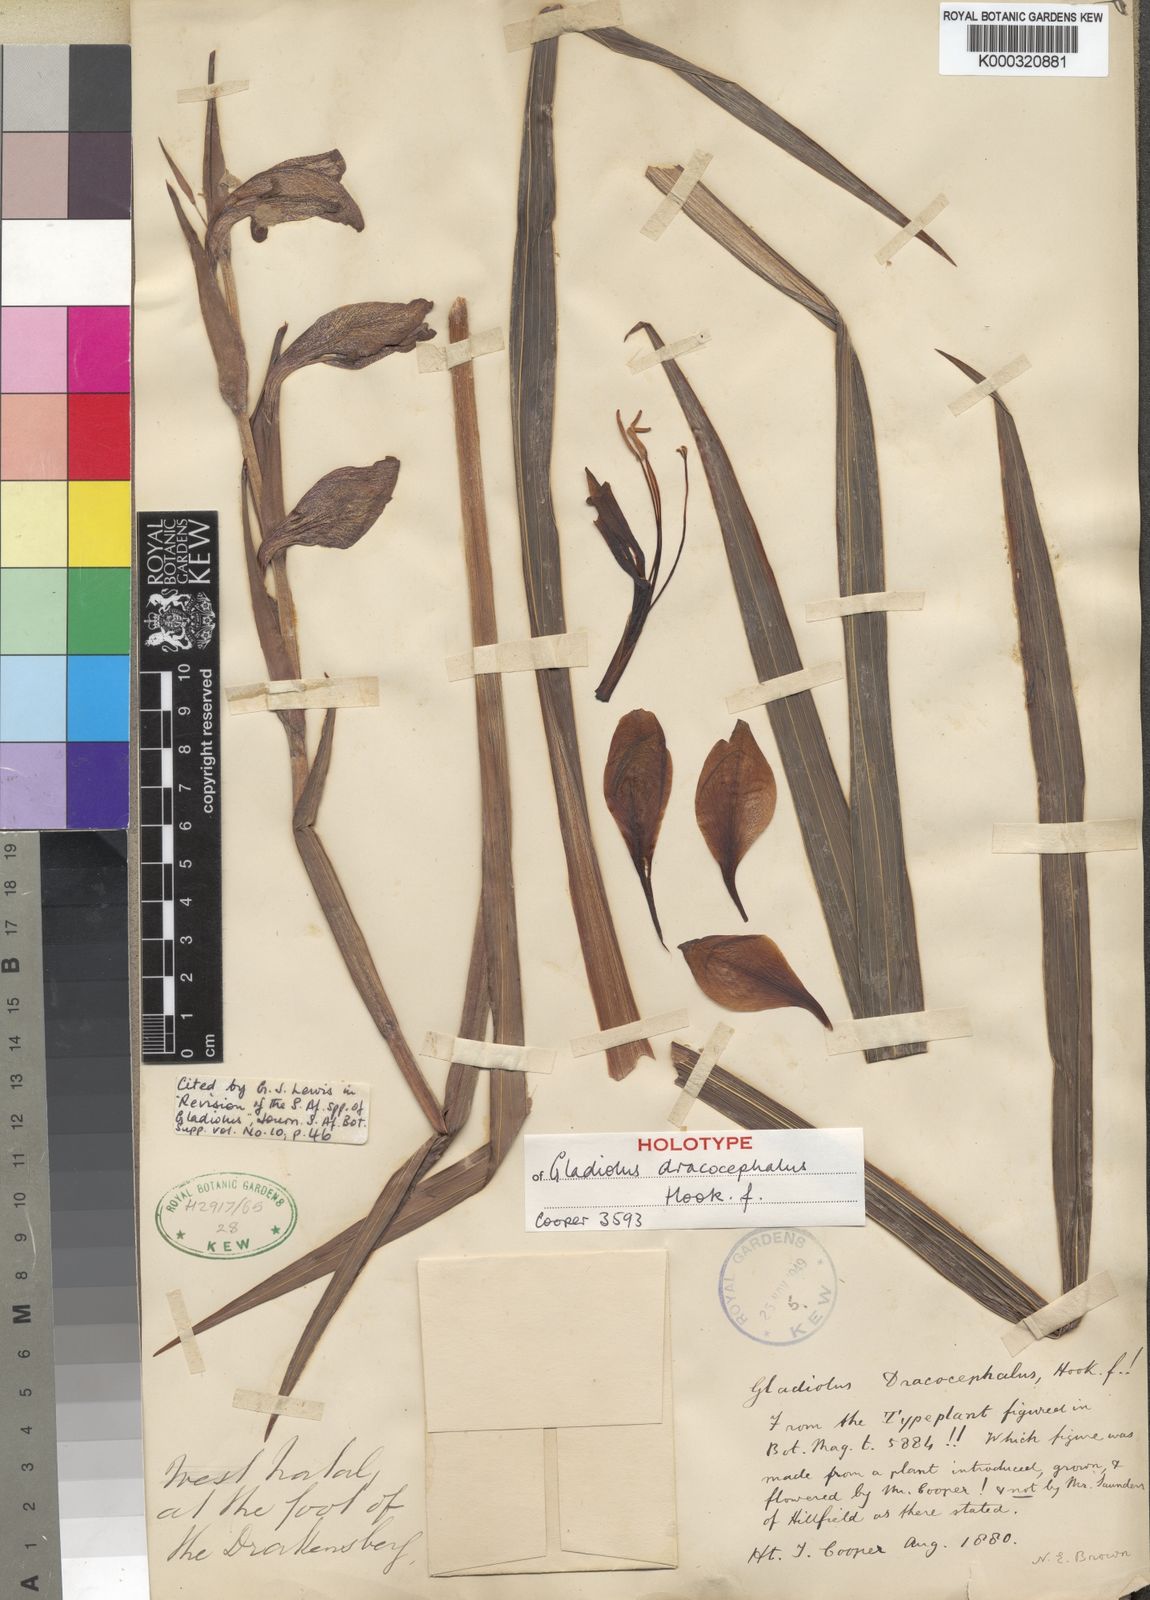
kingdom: Plantae
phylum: Tracheophyta
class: Liliopsida
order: Asparagales
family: Iridaceae
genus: Gladiolus
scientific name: Gladiolus dalenii
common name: Cornflag
